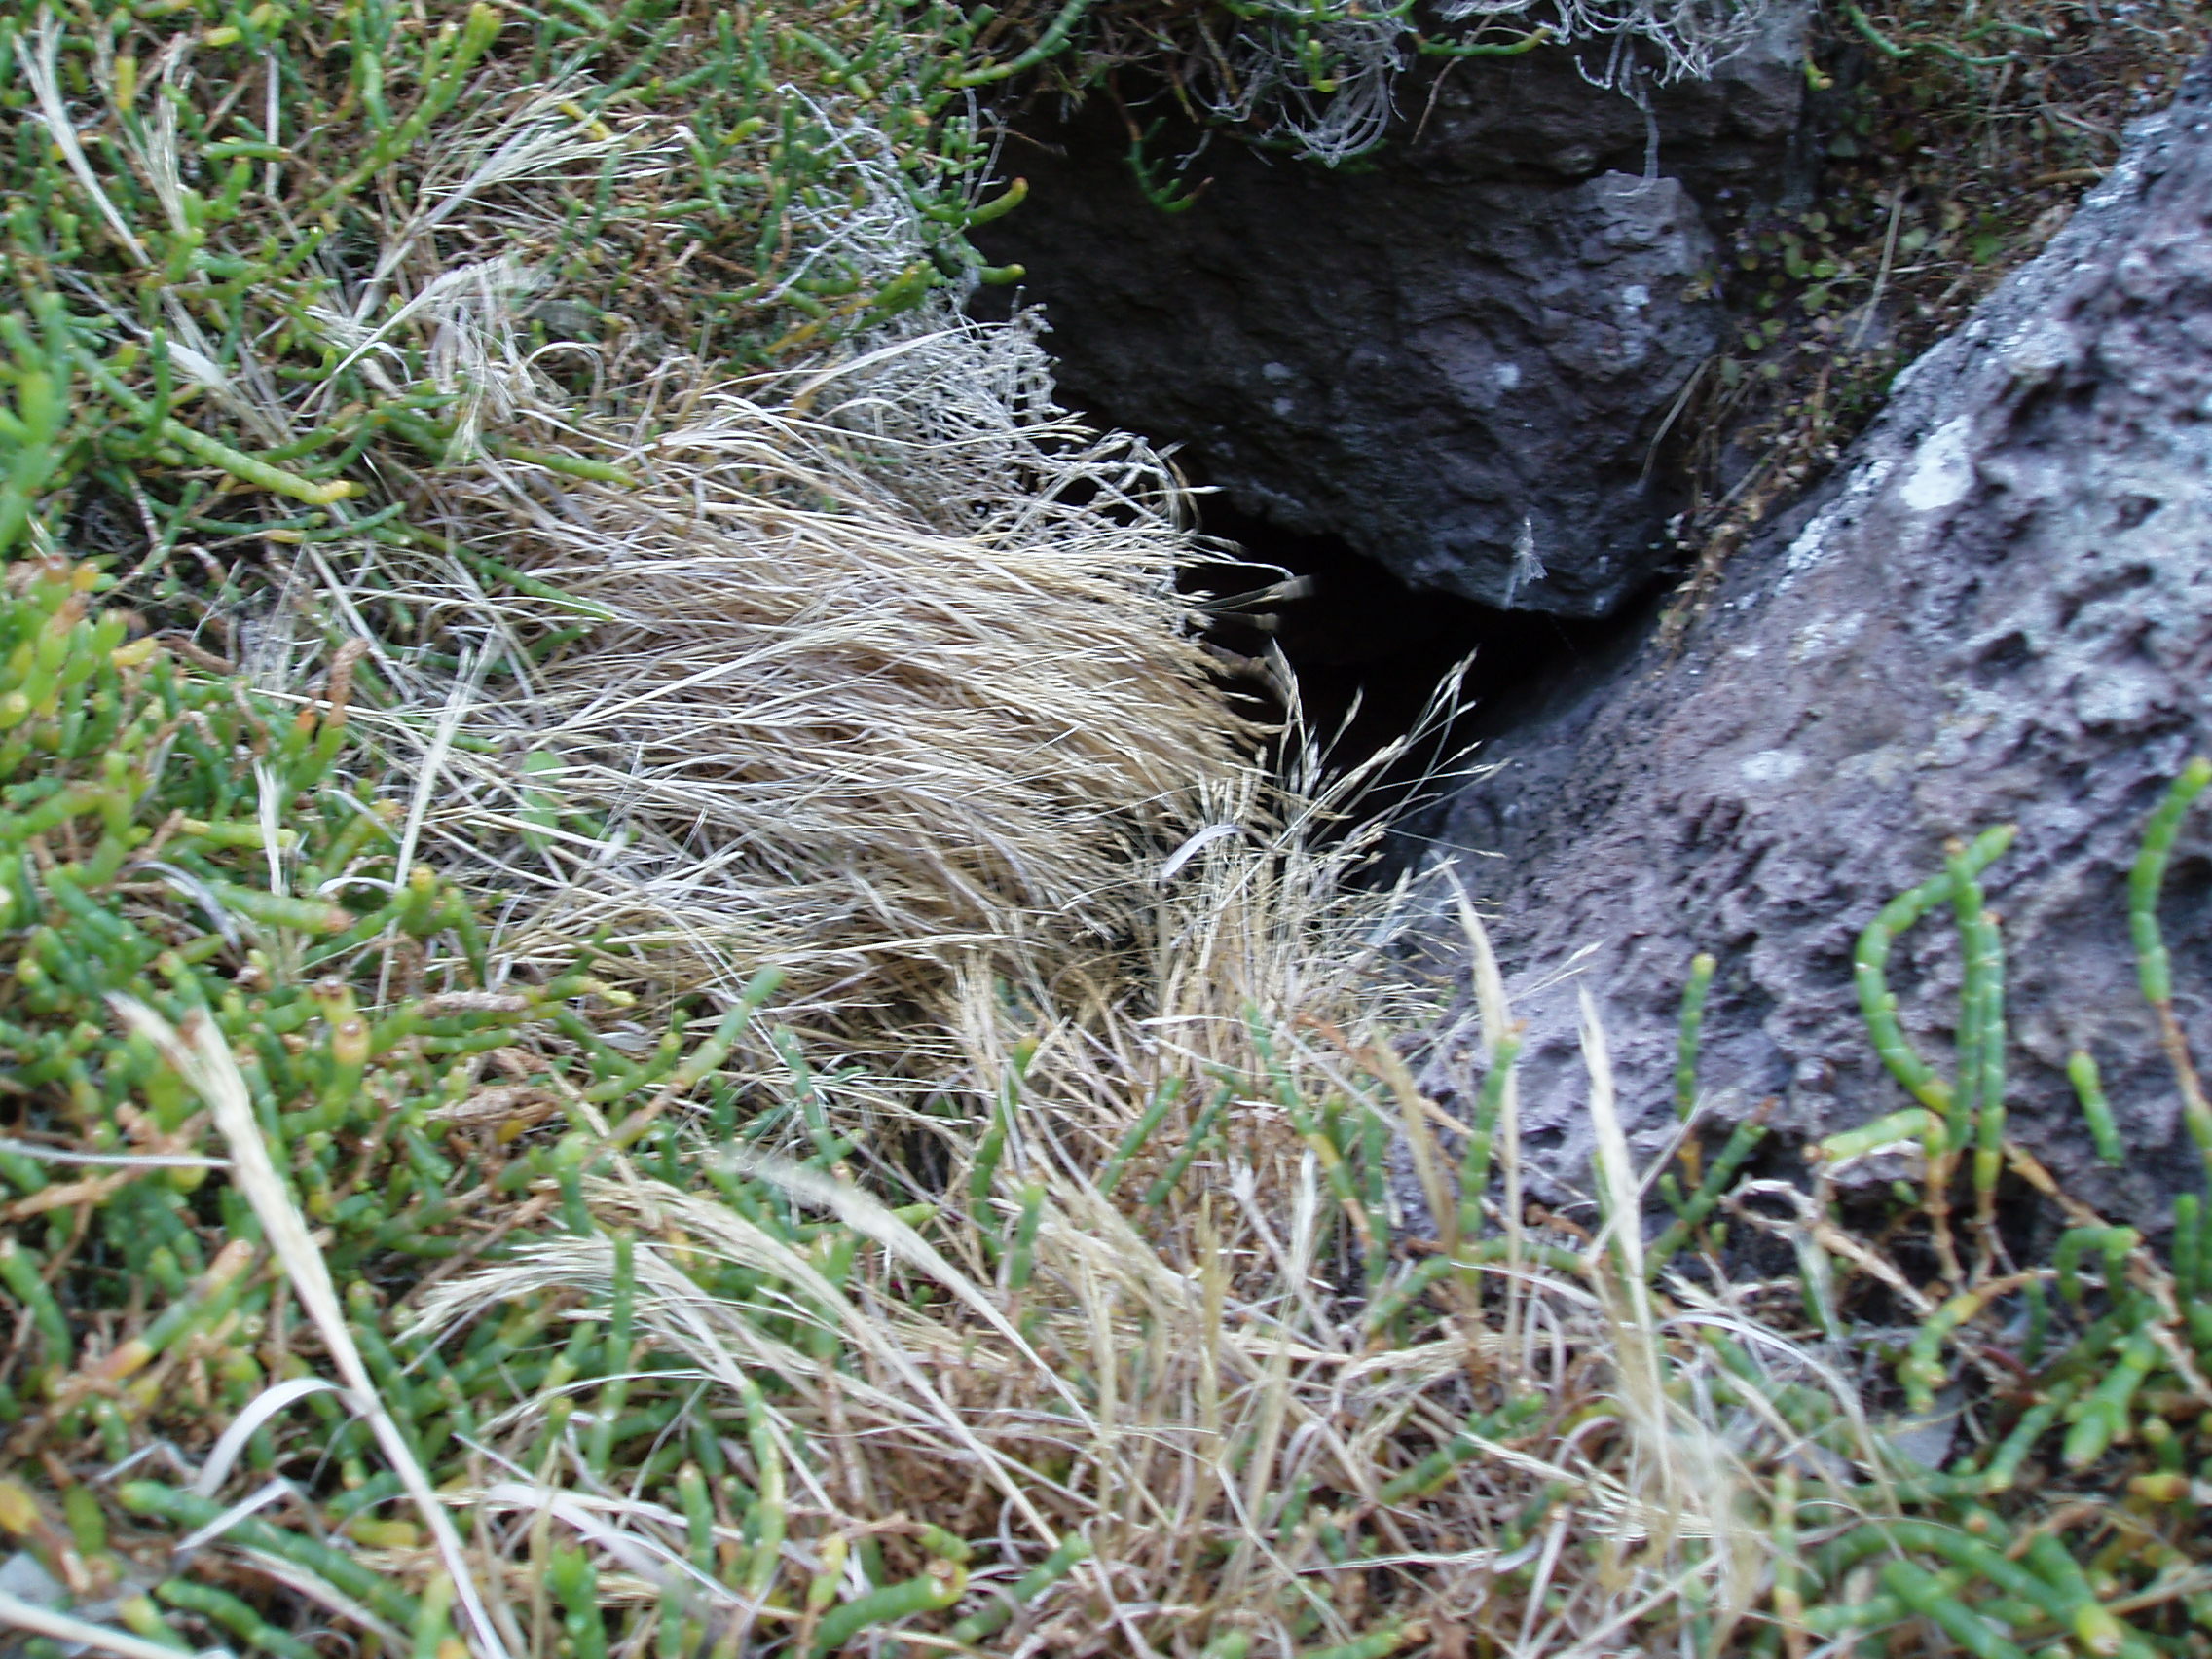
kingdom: Plantae
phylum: Tracheophyta
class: Liliopsida
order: Poales
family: Poaceae
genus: Lachnagrostis
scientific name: Lachnagrostis littoralis
